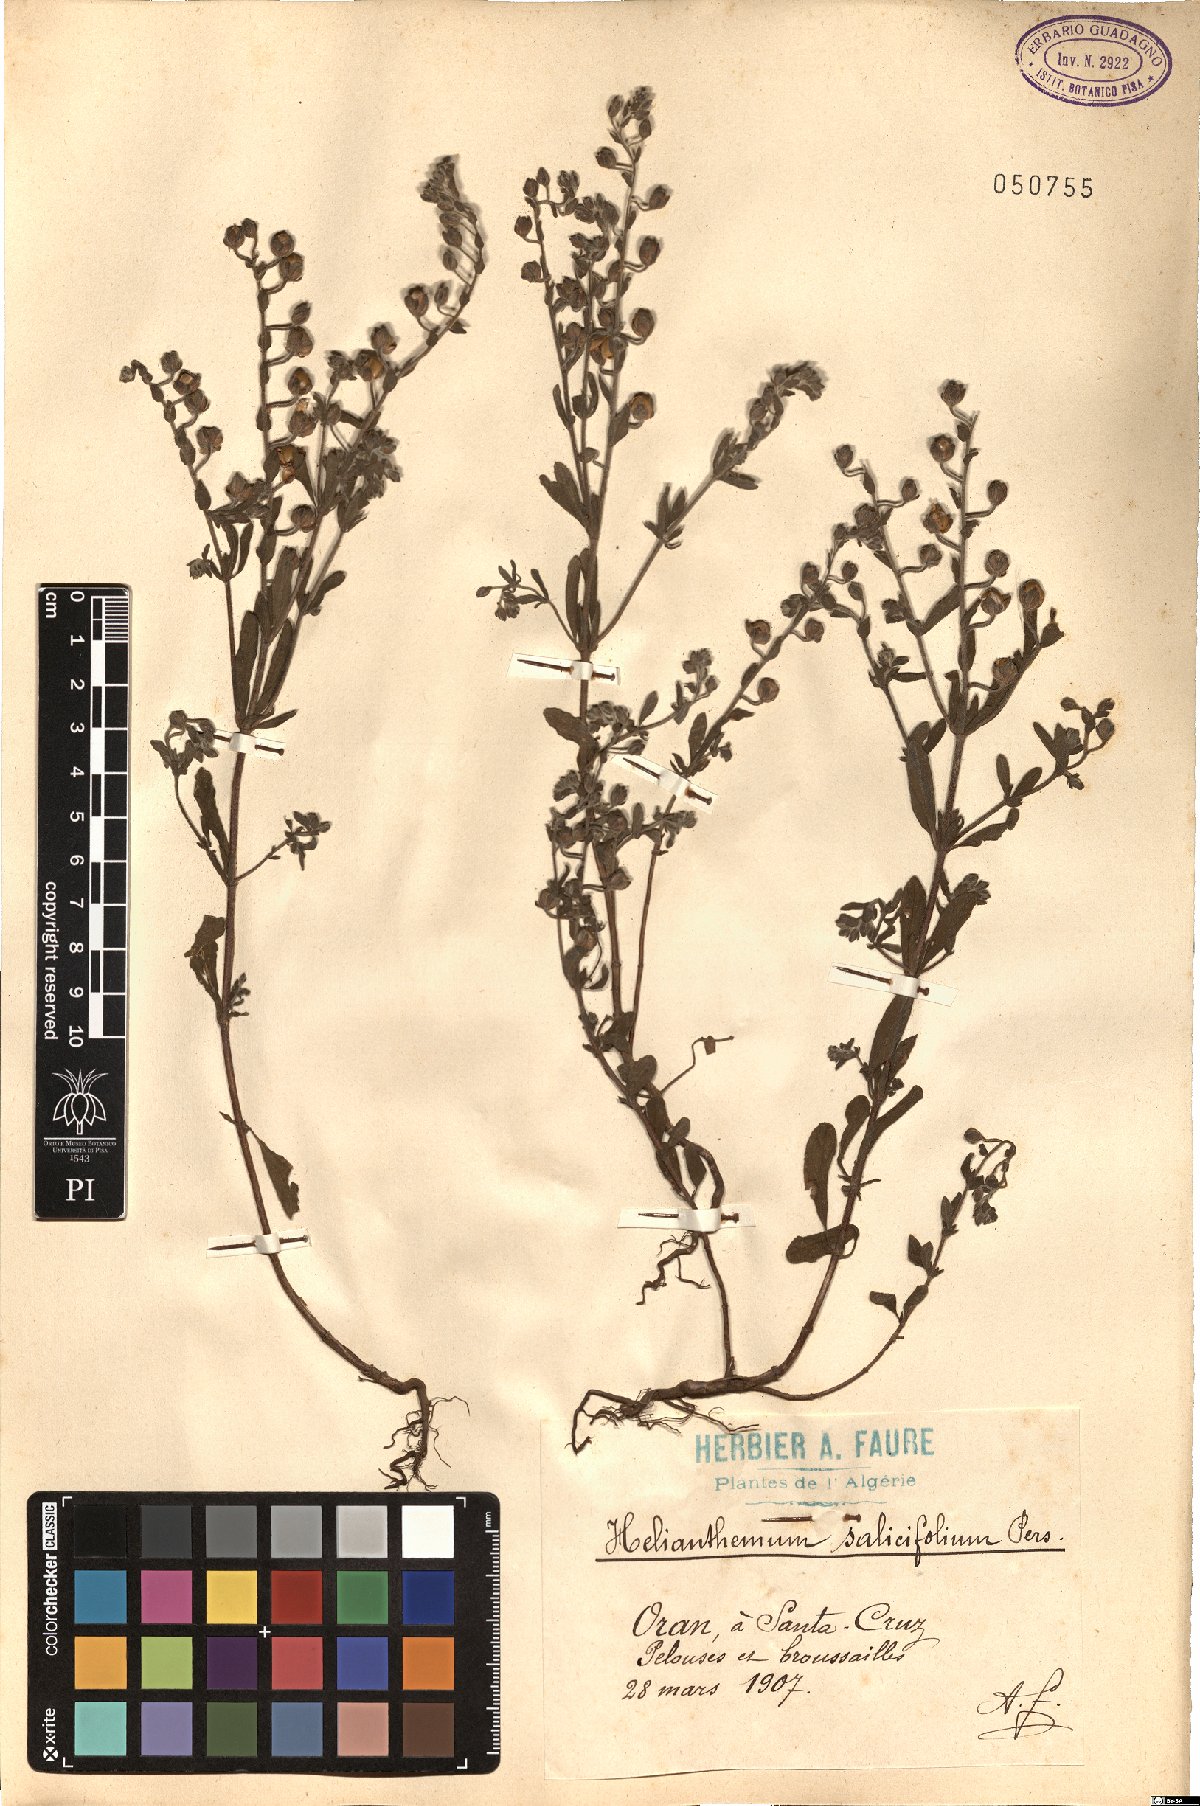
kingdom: Plantae
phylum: Tracheophyta
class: Magnoliopsida
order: Malvales
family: Cistaceae
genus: Helianthemum
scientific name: Helianthemum salicifolium
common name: Willowleaf frostweed
